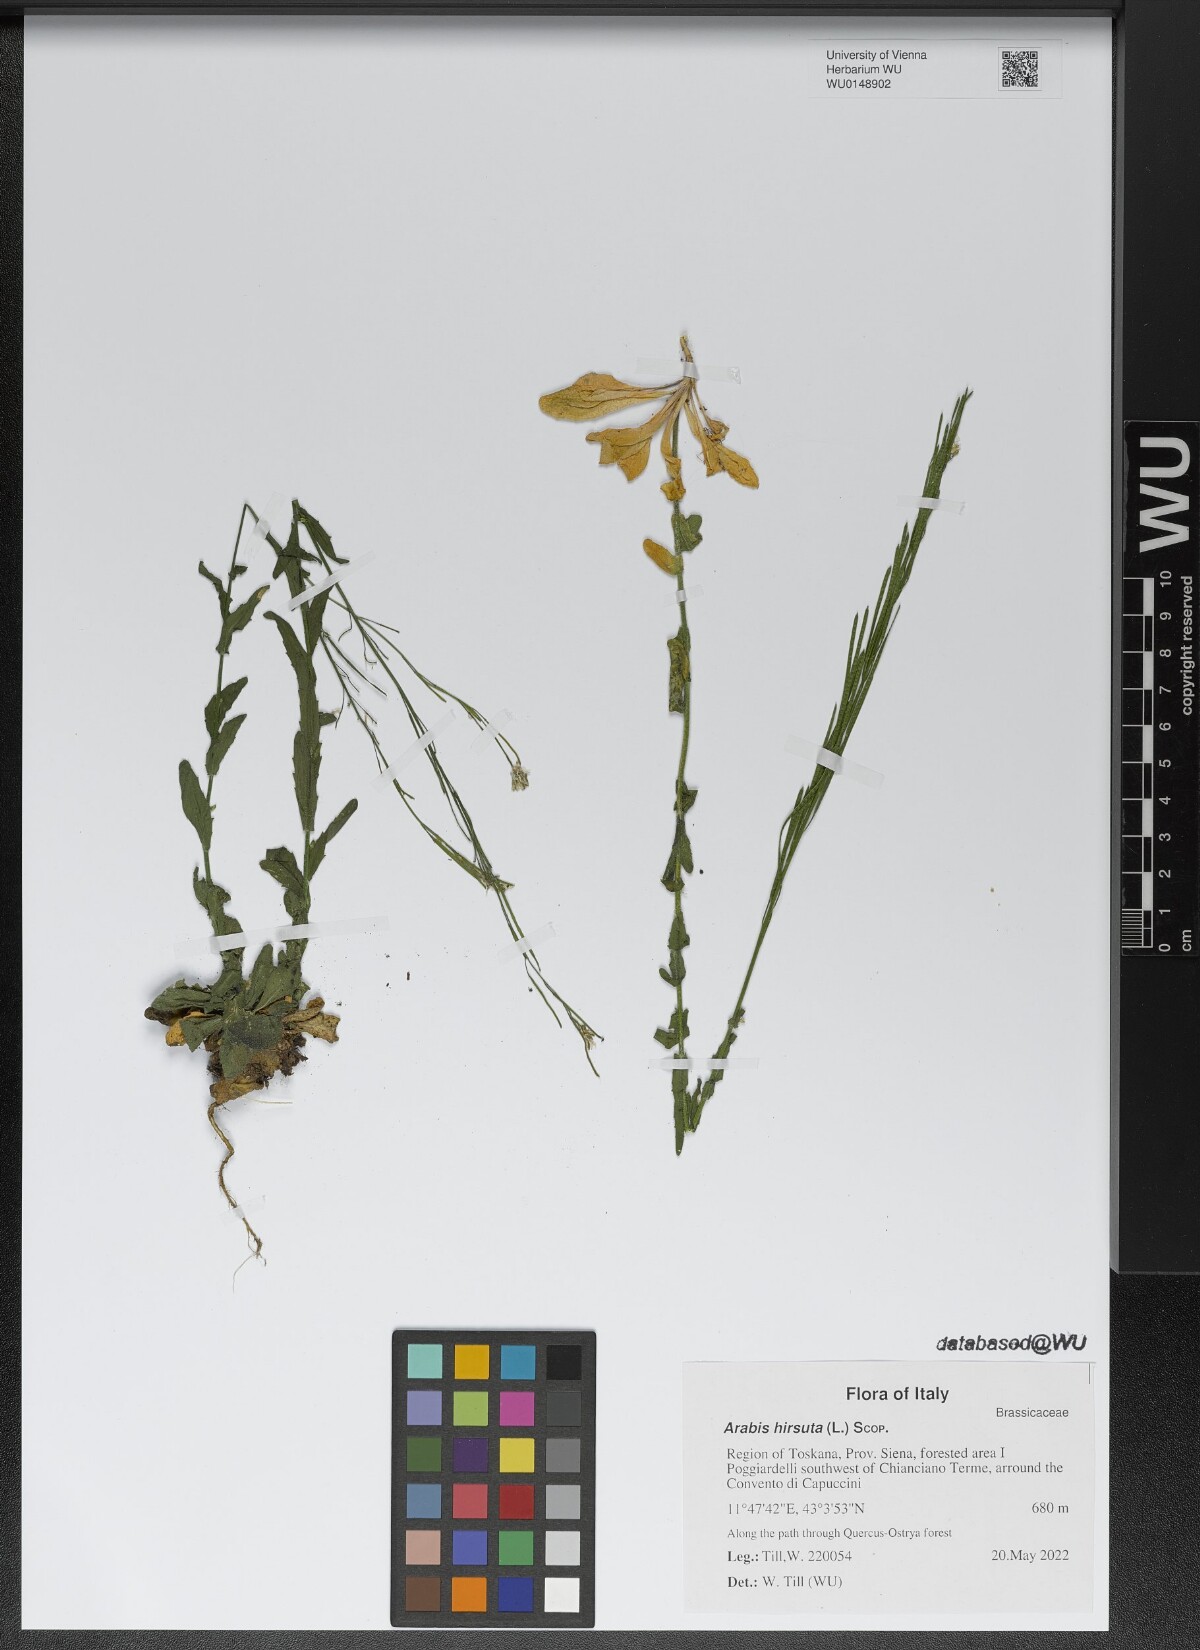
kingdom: Plantae
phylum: Tracheophyta
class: Magnoliopsida
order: Brassicales
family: Brassicaceae
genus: Arabis
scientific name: Arabis hirsuta
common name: Hairy rock-cress
